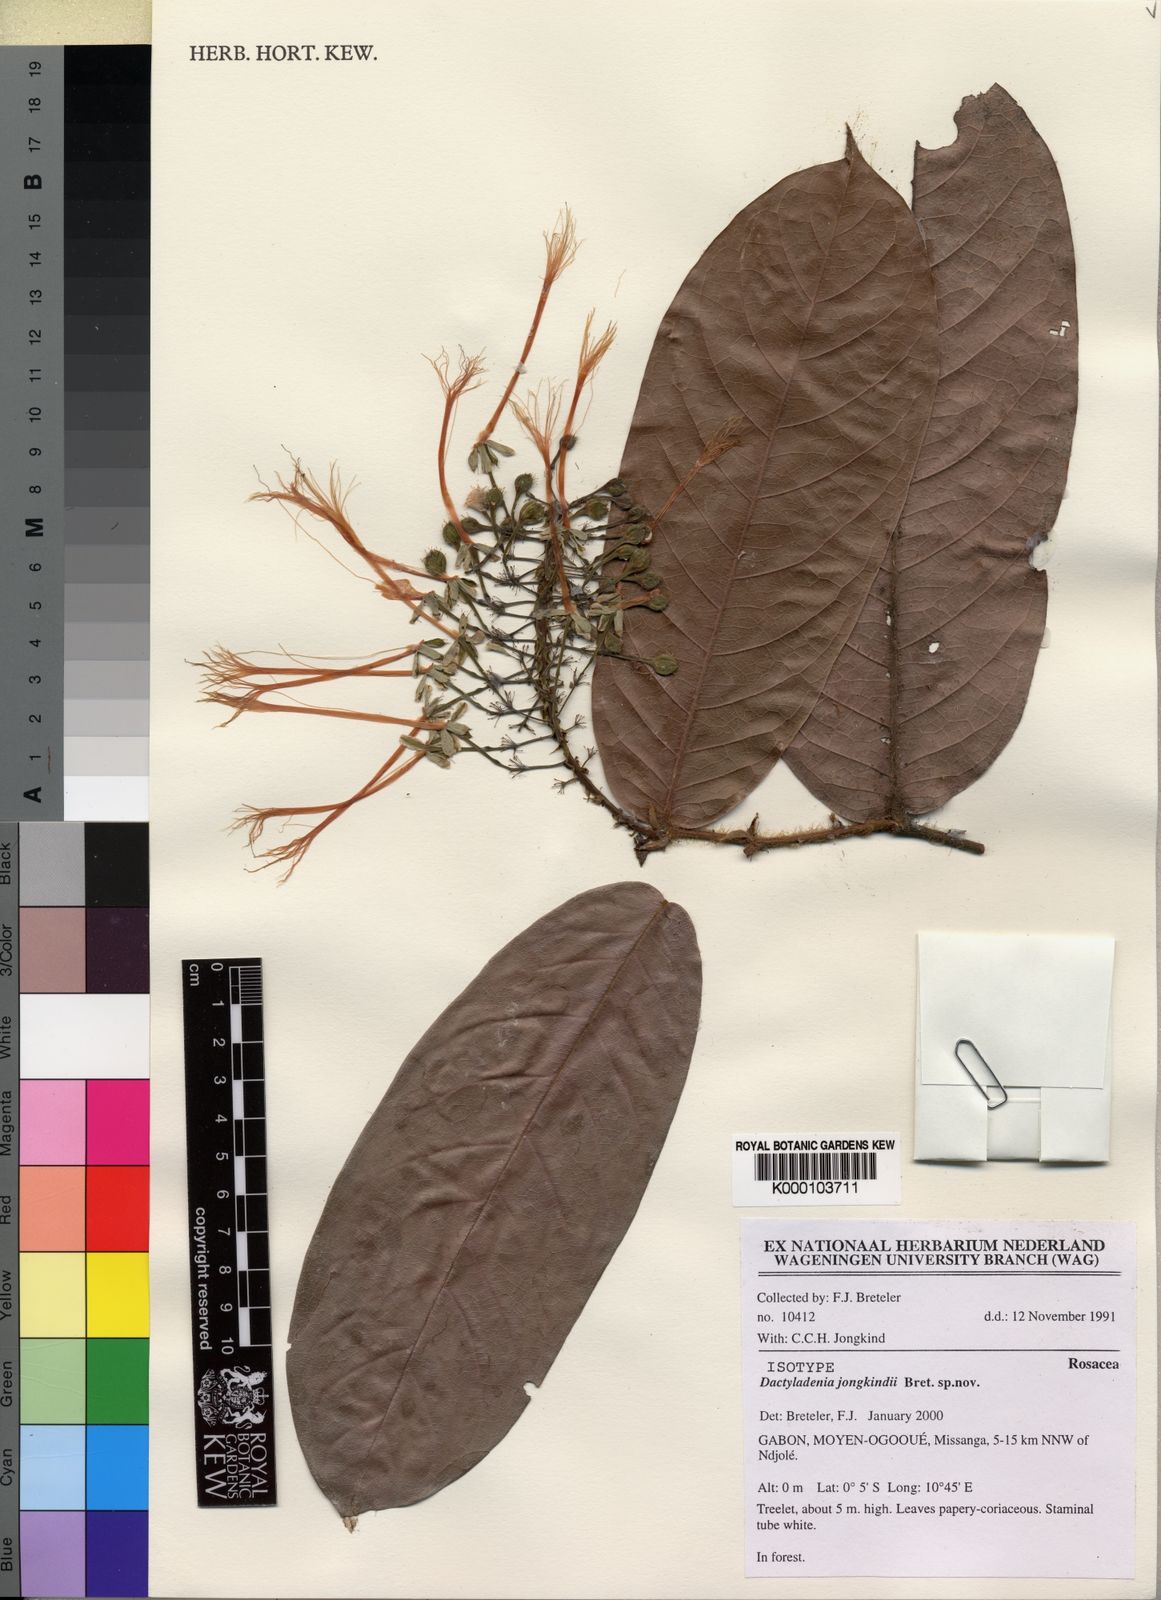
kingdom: Plantae
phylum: Tracheophyta
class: Magnoliopsida
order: Malpighiales
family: Chrysobalanaceae
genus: Dactyladenia
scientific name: Dactyladenia jongkindii
